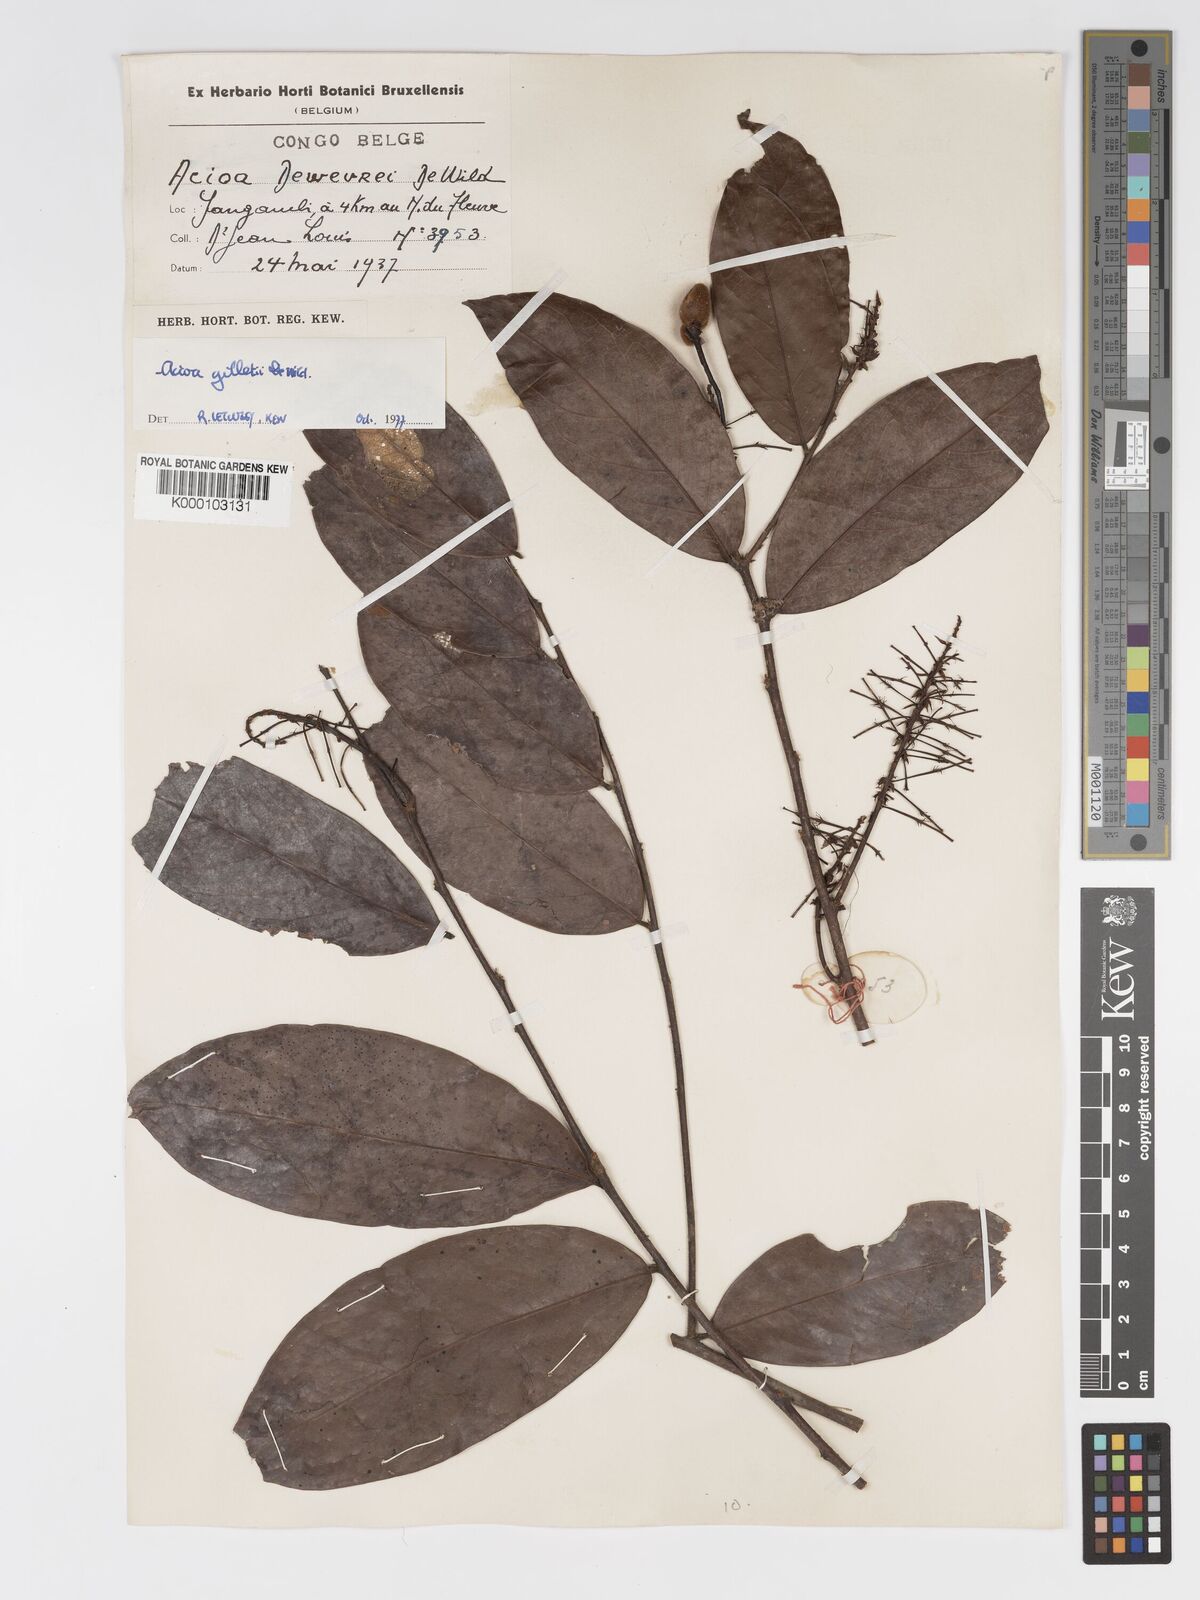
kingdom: Plantae
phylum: Tracheophyta
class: Magnoliopsida
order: Malpighiales
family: Chrysobalanaceae
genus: Dactyladenia
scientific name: Dactyladenia gilletii
